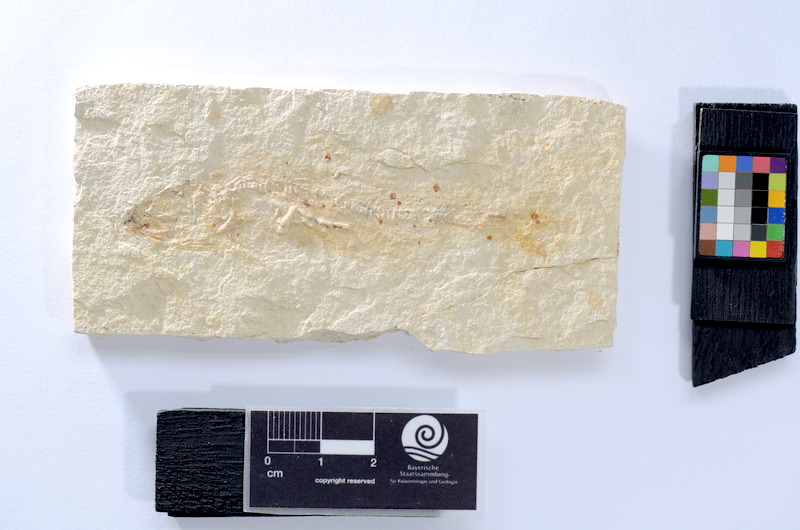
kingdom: Animalia
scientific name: Animalia
